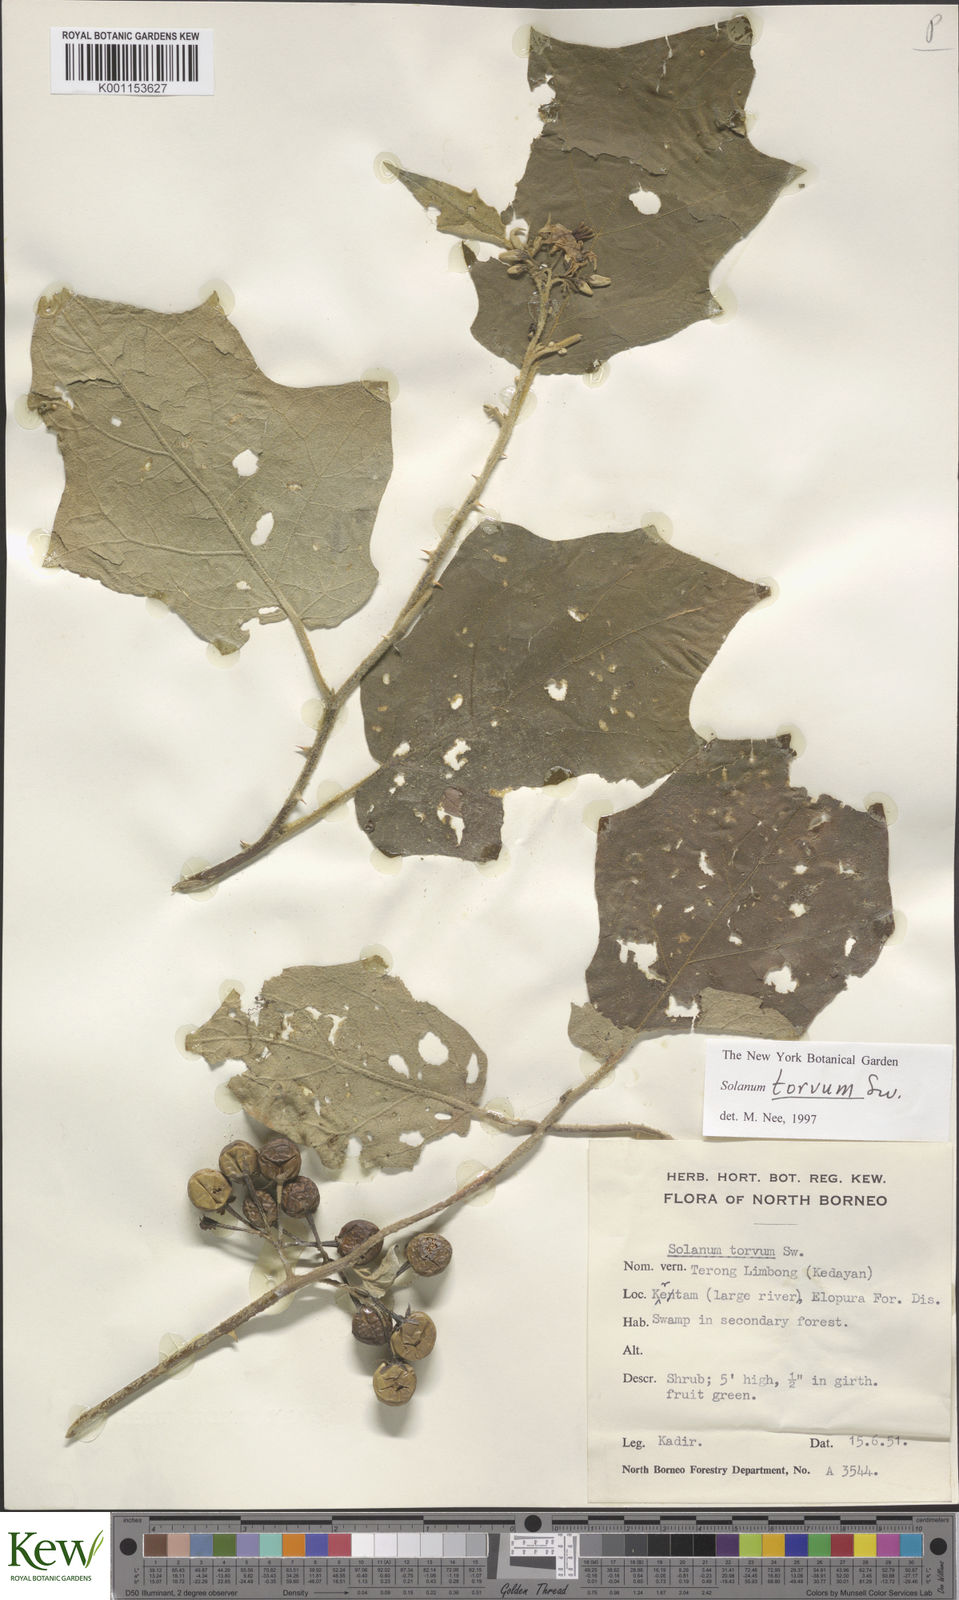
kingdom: Plantae
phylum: Tracheophyta
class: Magnoliopsida
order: Solanales
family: Solanaceae
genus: Solanum
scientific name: Solanum torvum
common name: Turkey berry
